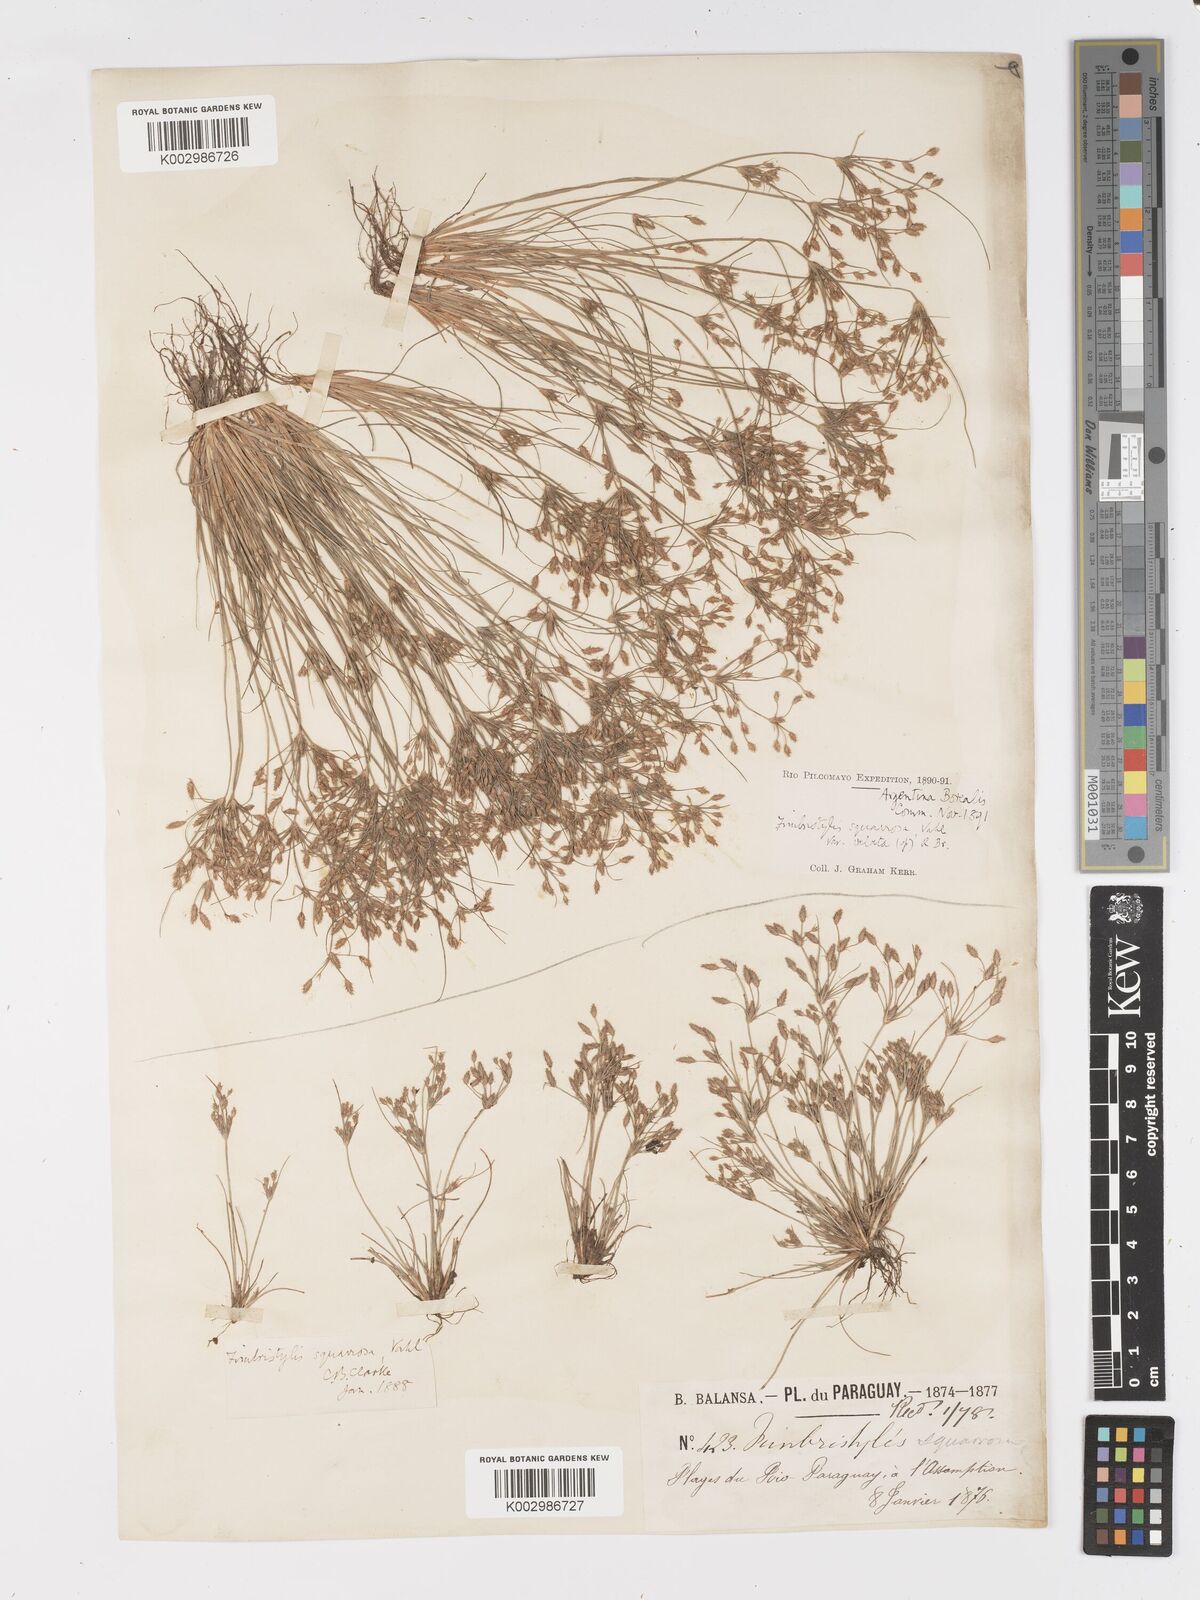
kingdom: Plantae
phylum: Tracheophyta
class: Liliopsida
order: Poales
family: Cyperaceae
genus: Fimbristylis
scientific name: Fimbristylis squarrosa
